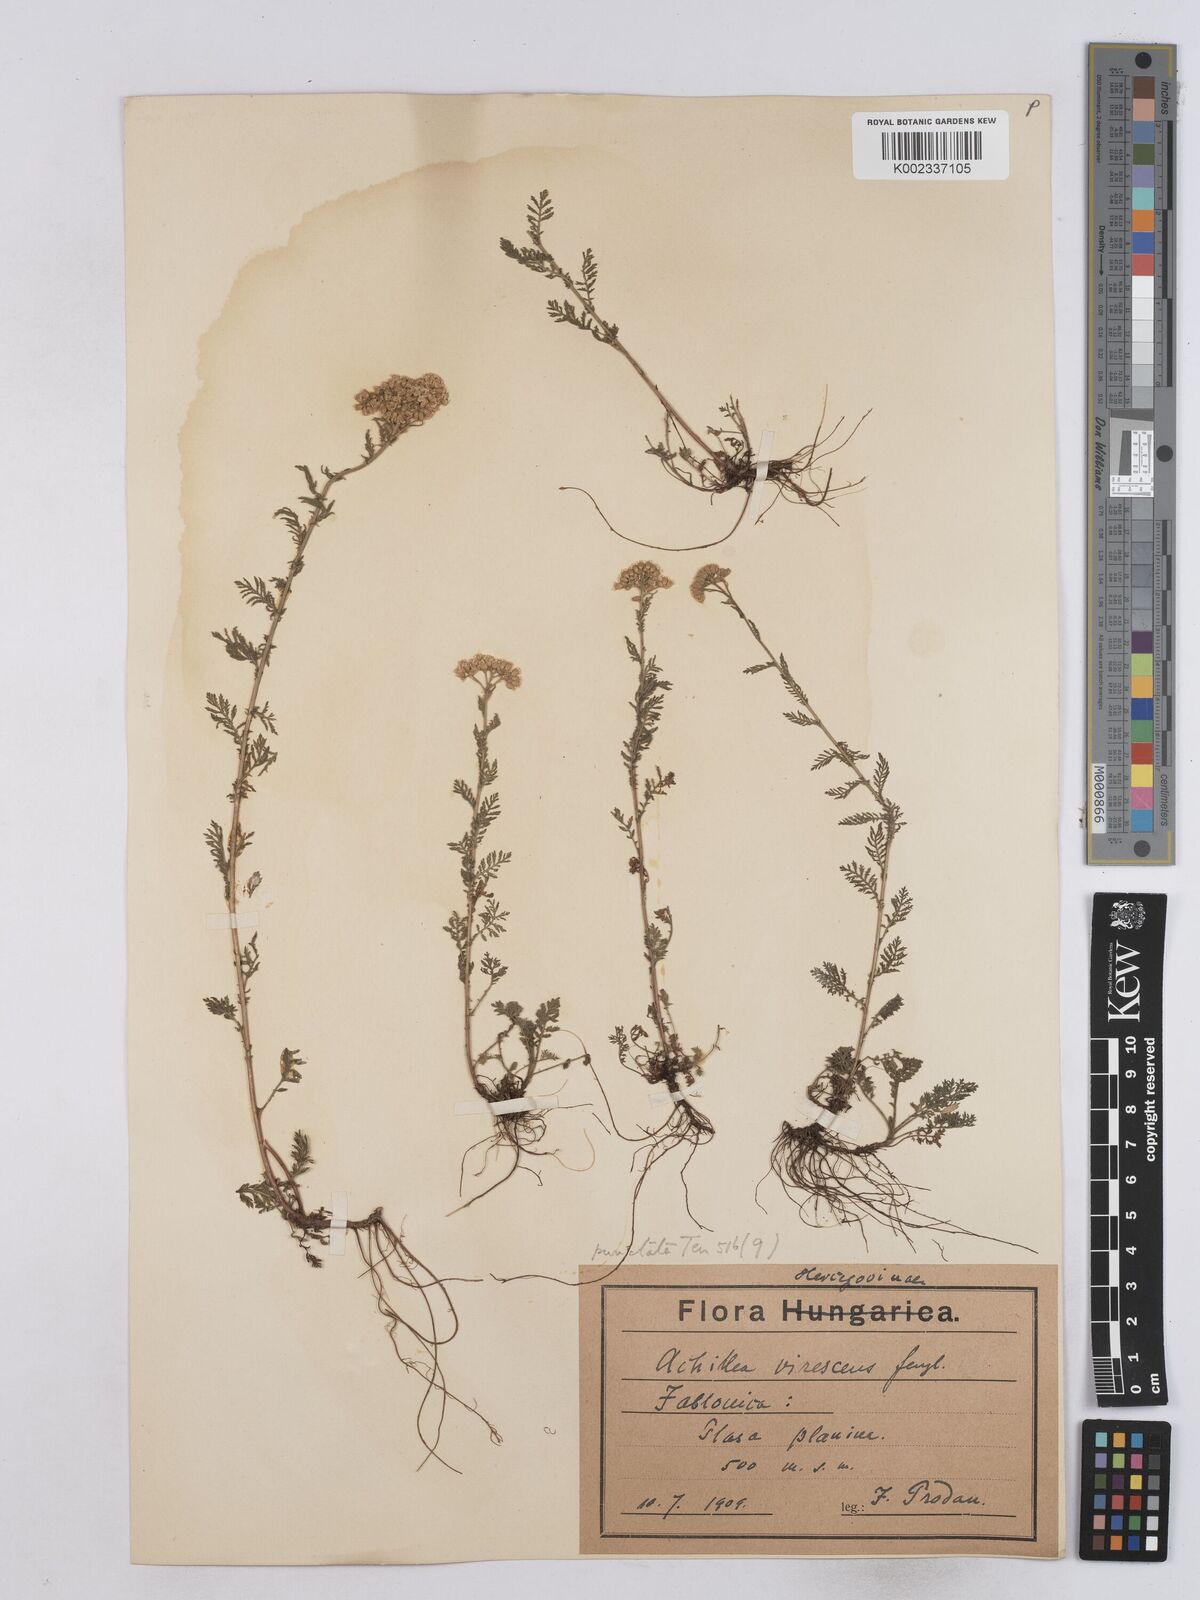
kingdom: Plantae
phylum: Tracheophyta
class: Magnoliopsida
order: Asterales
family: Asteraceae
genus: Achillea
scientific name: Achillea virescens
